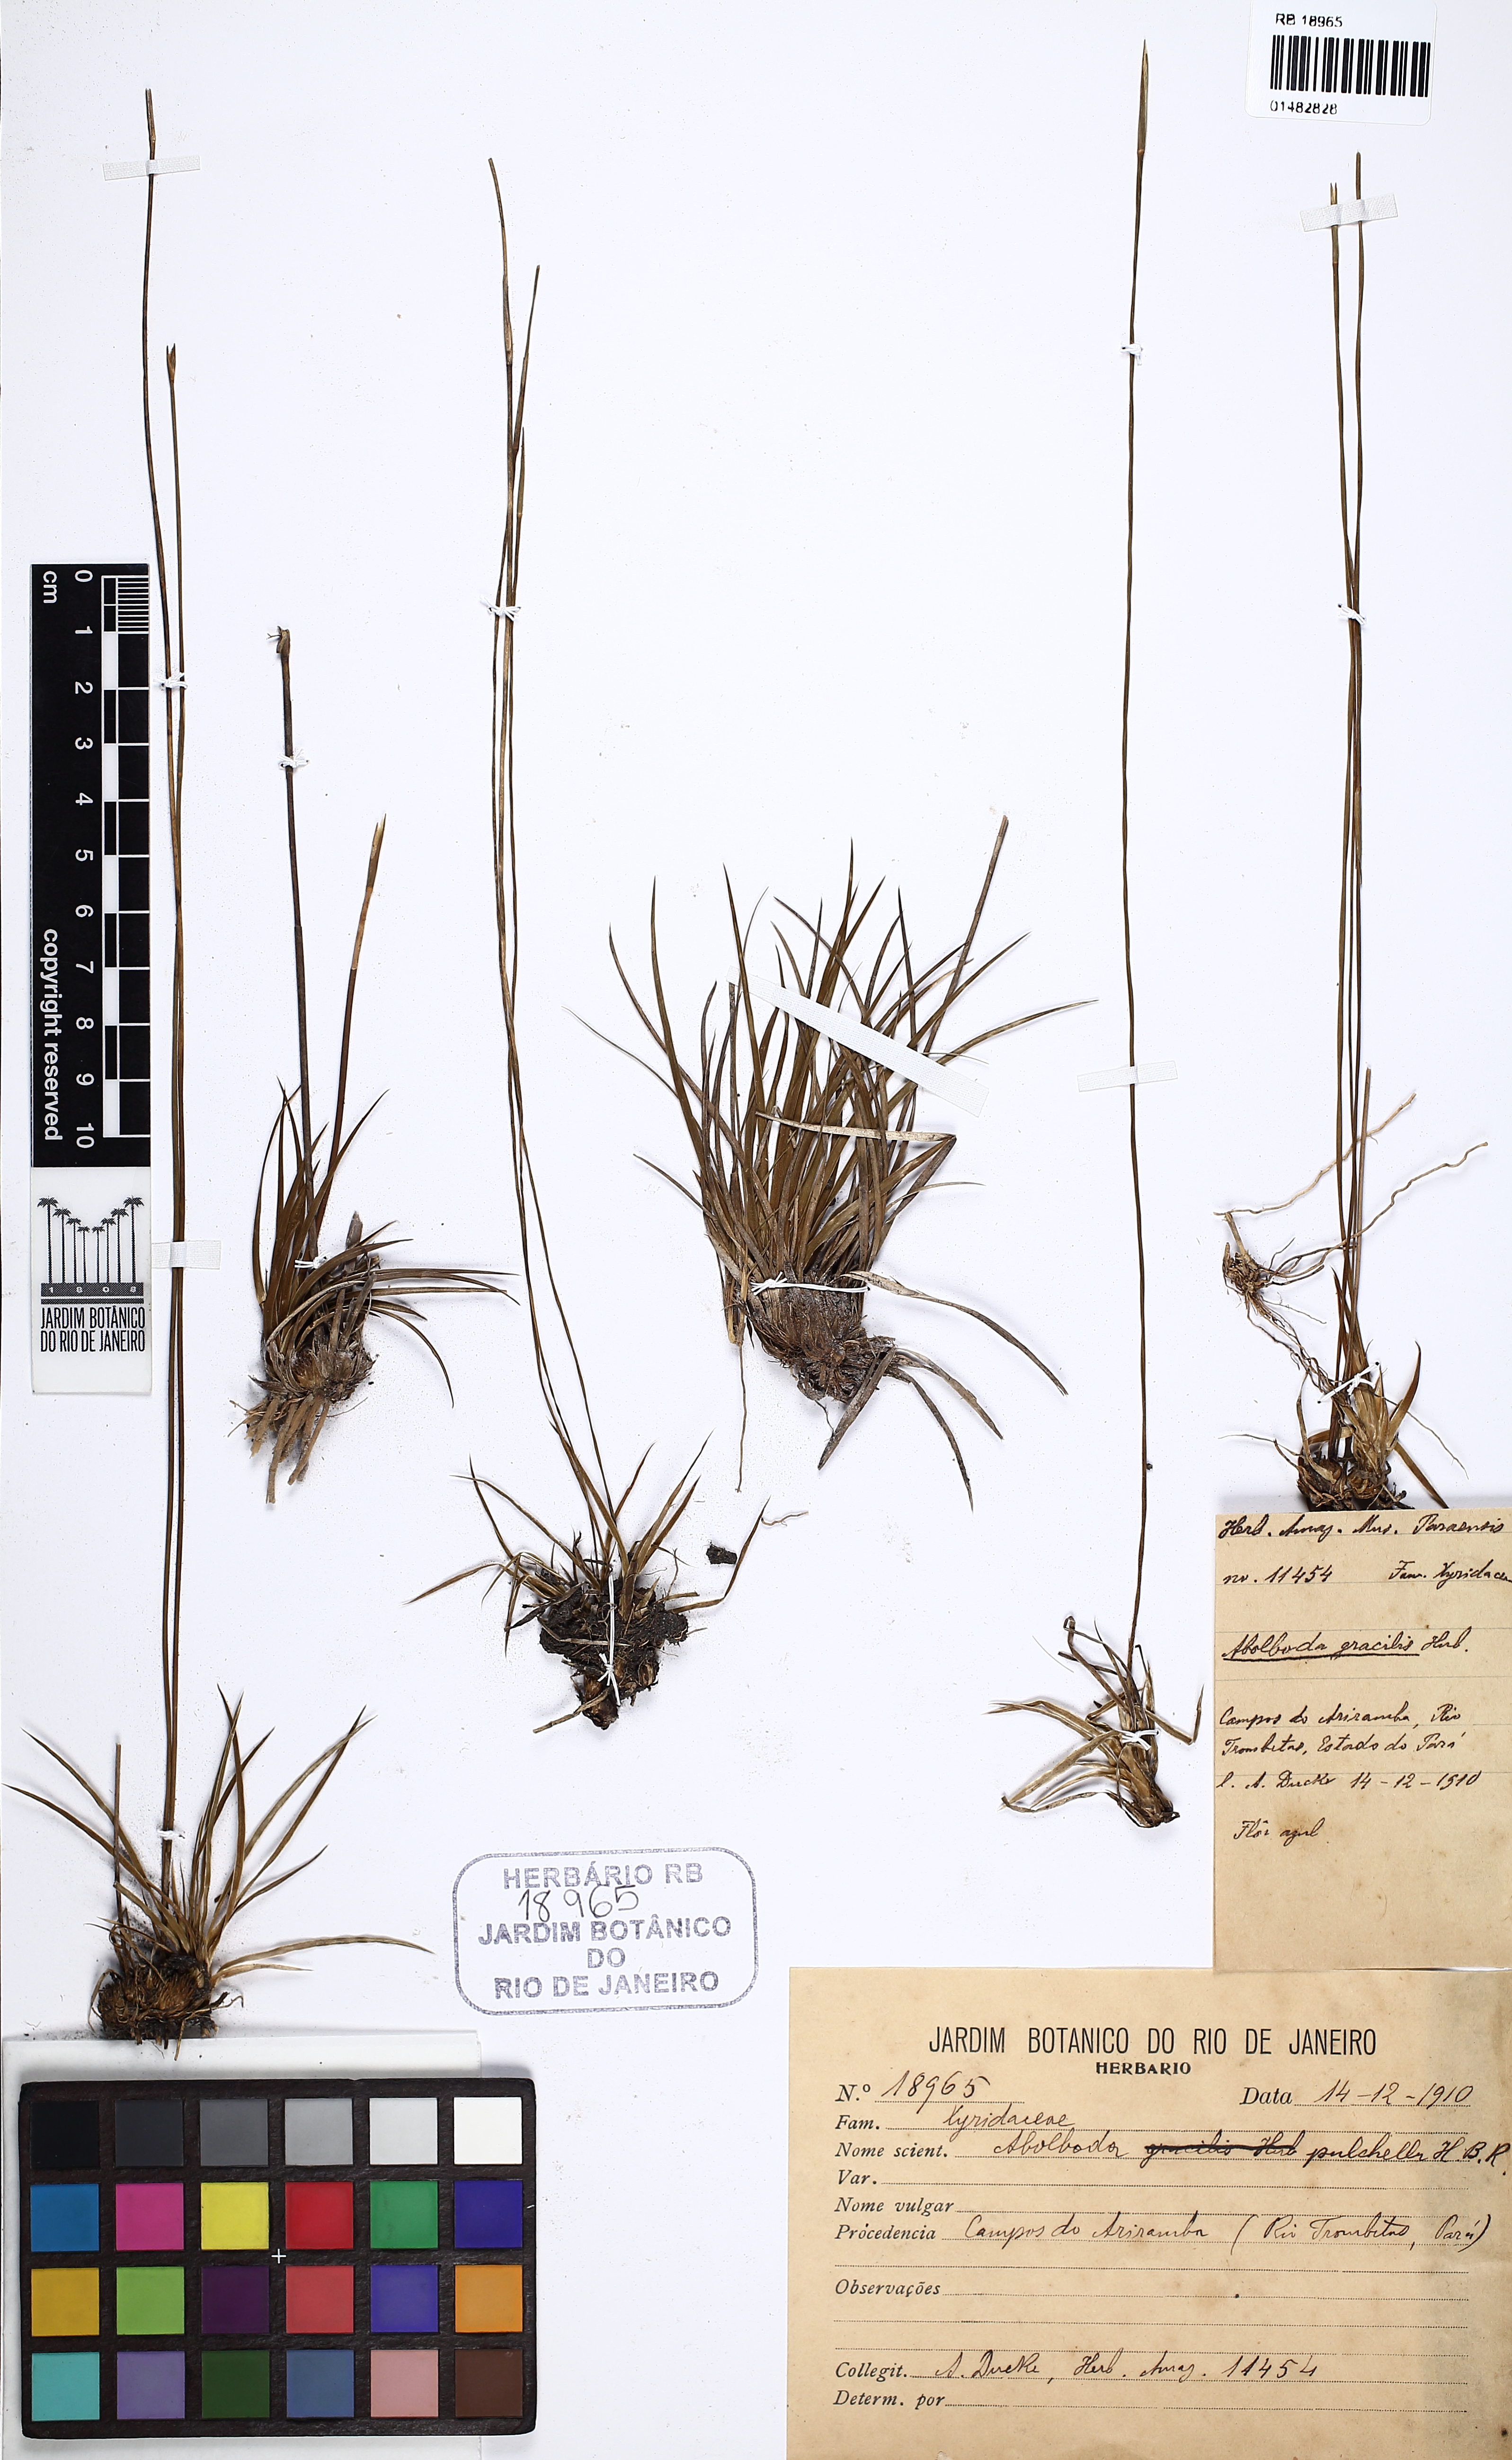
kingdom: Plantae
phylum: Tracheophyta
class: Liliopsida
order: Poales
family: Xyridaceae
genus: Abolboda
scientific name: Abolboda pulchella
